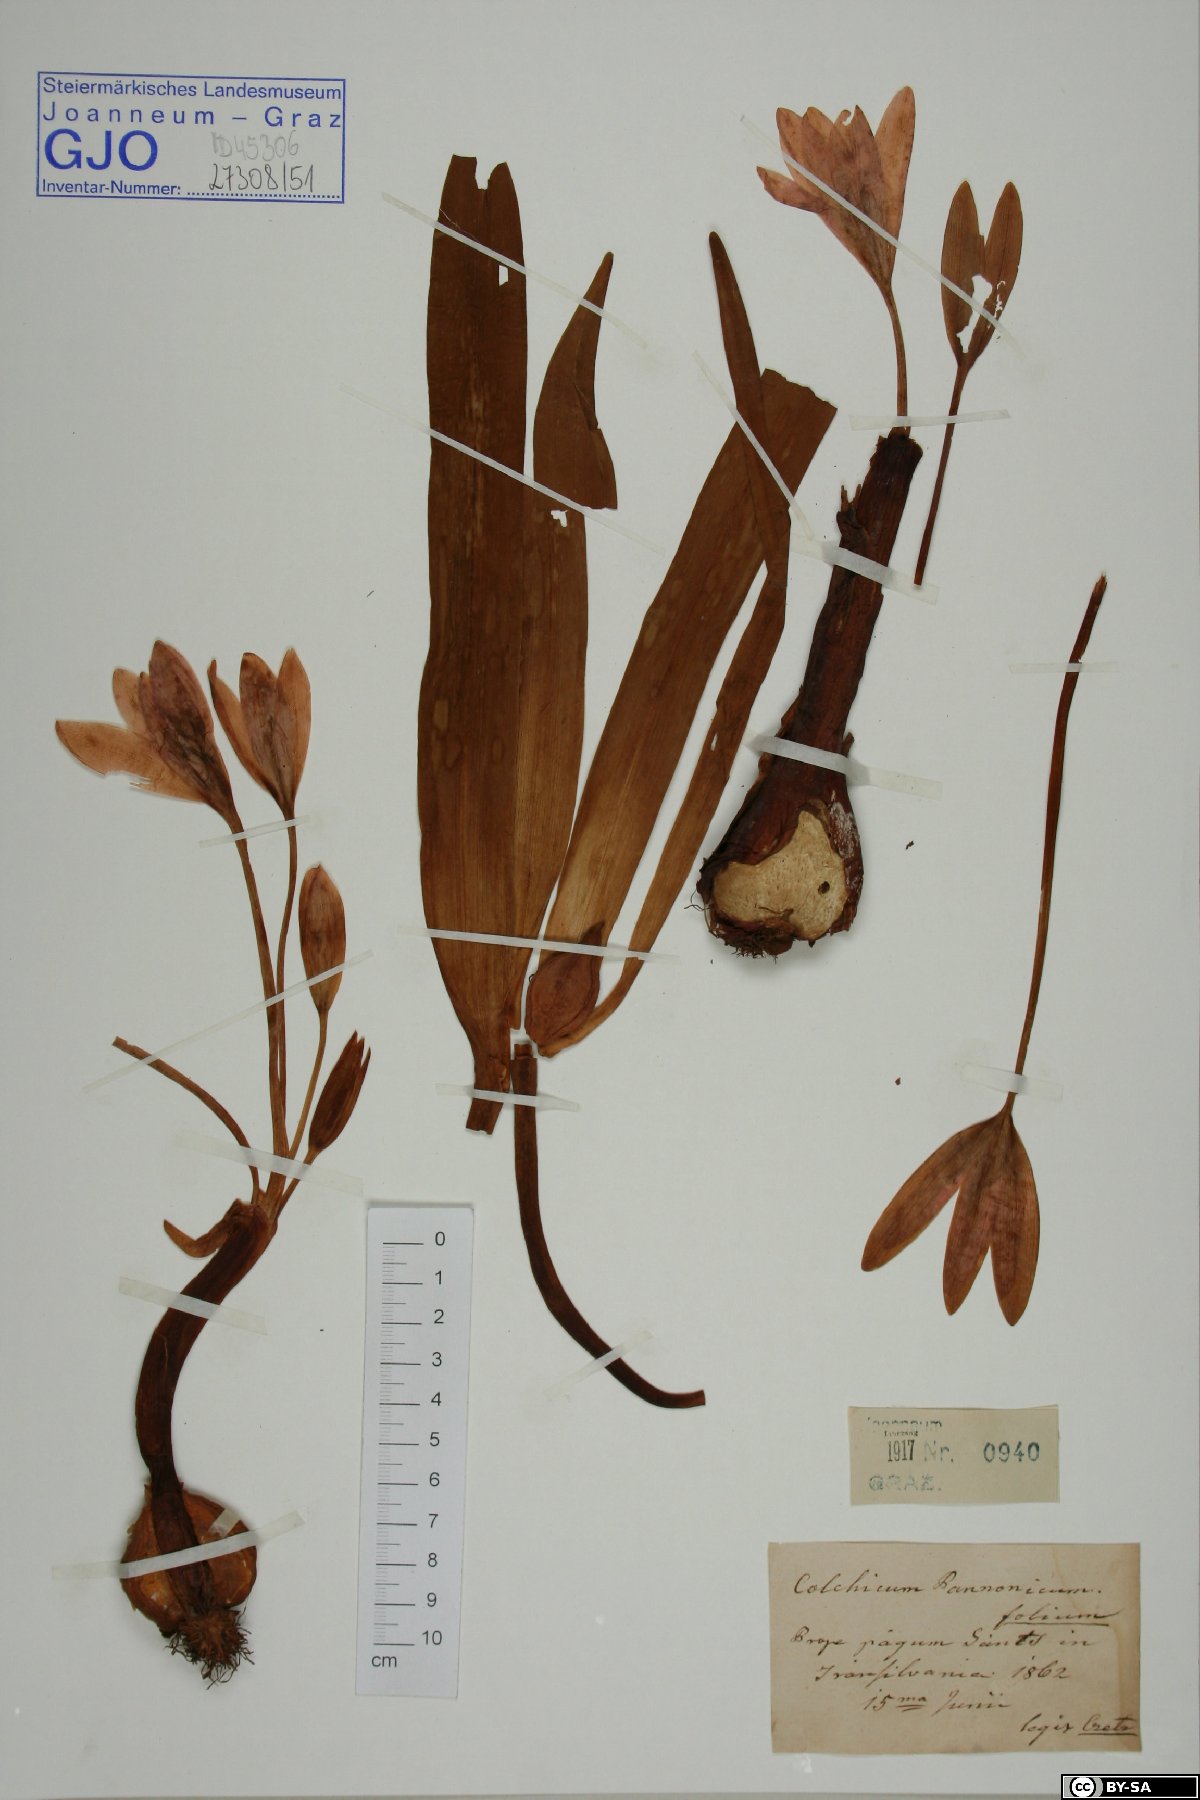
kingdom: Plantae
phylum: Tracheophyta
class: Liliopsida
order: Liliales
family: Colchicaceae
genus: Colchicum
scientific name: Colchicum autumnale
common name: Autumn crocus
